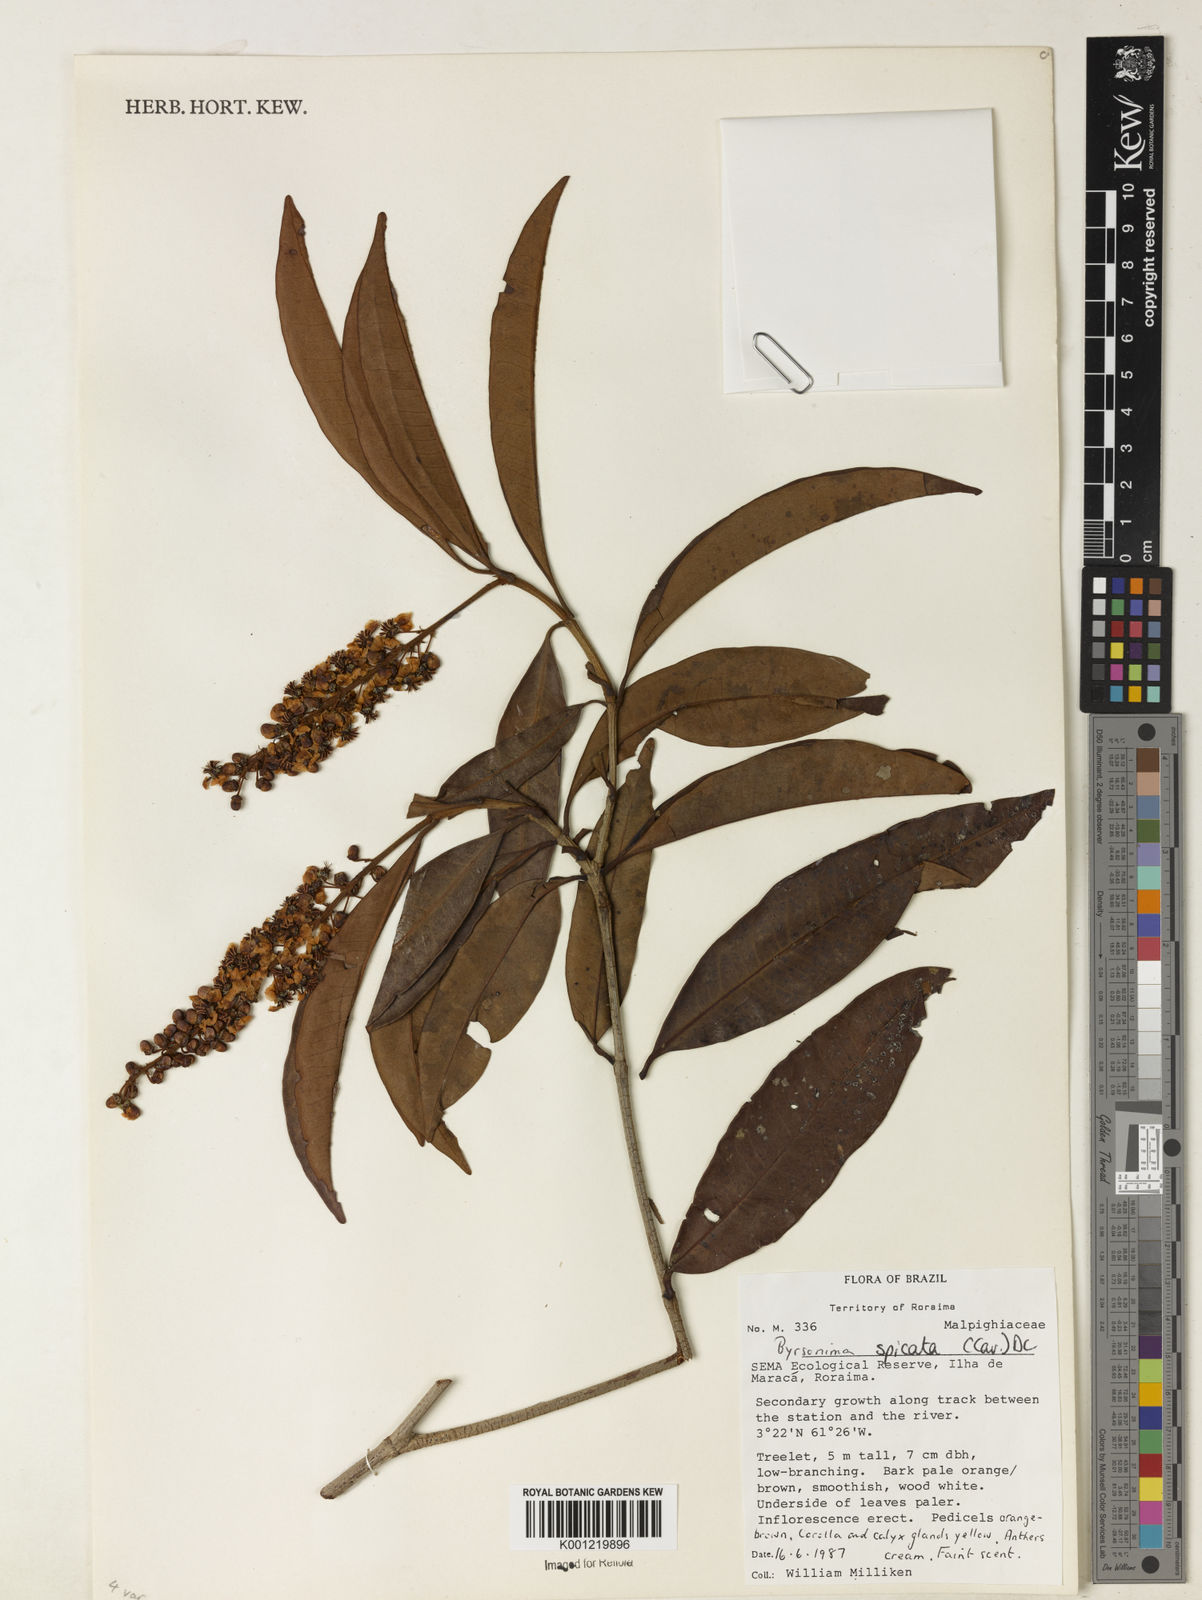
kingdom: Plantae
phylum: Tracheophyta
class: Magnoliopsida
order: Malpighiales
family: Malpighiaceae
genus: Byrsonima
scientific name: Byrsonima
